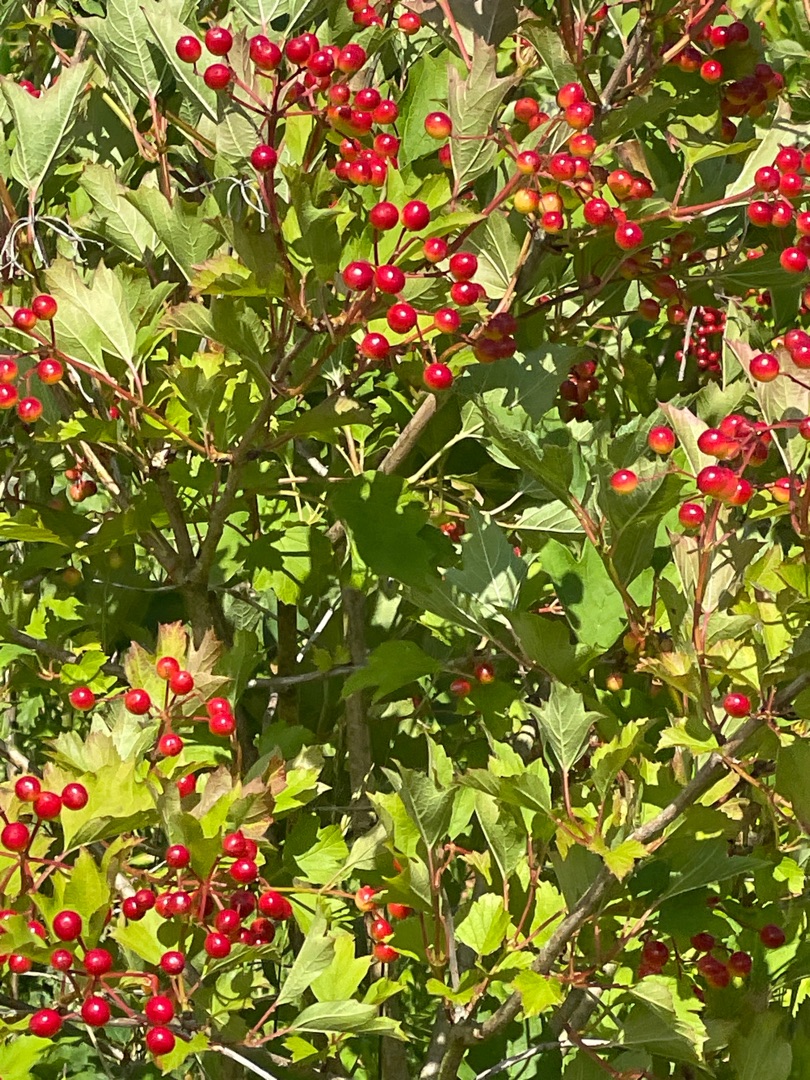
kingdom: Plantae
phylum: Tracheophyta
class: Magnoliopsida
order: Dipsacales
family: Viburnaceae
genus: Viburnum
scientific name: Viburnum opulus
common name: Kvalkved
